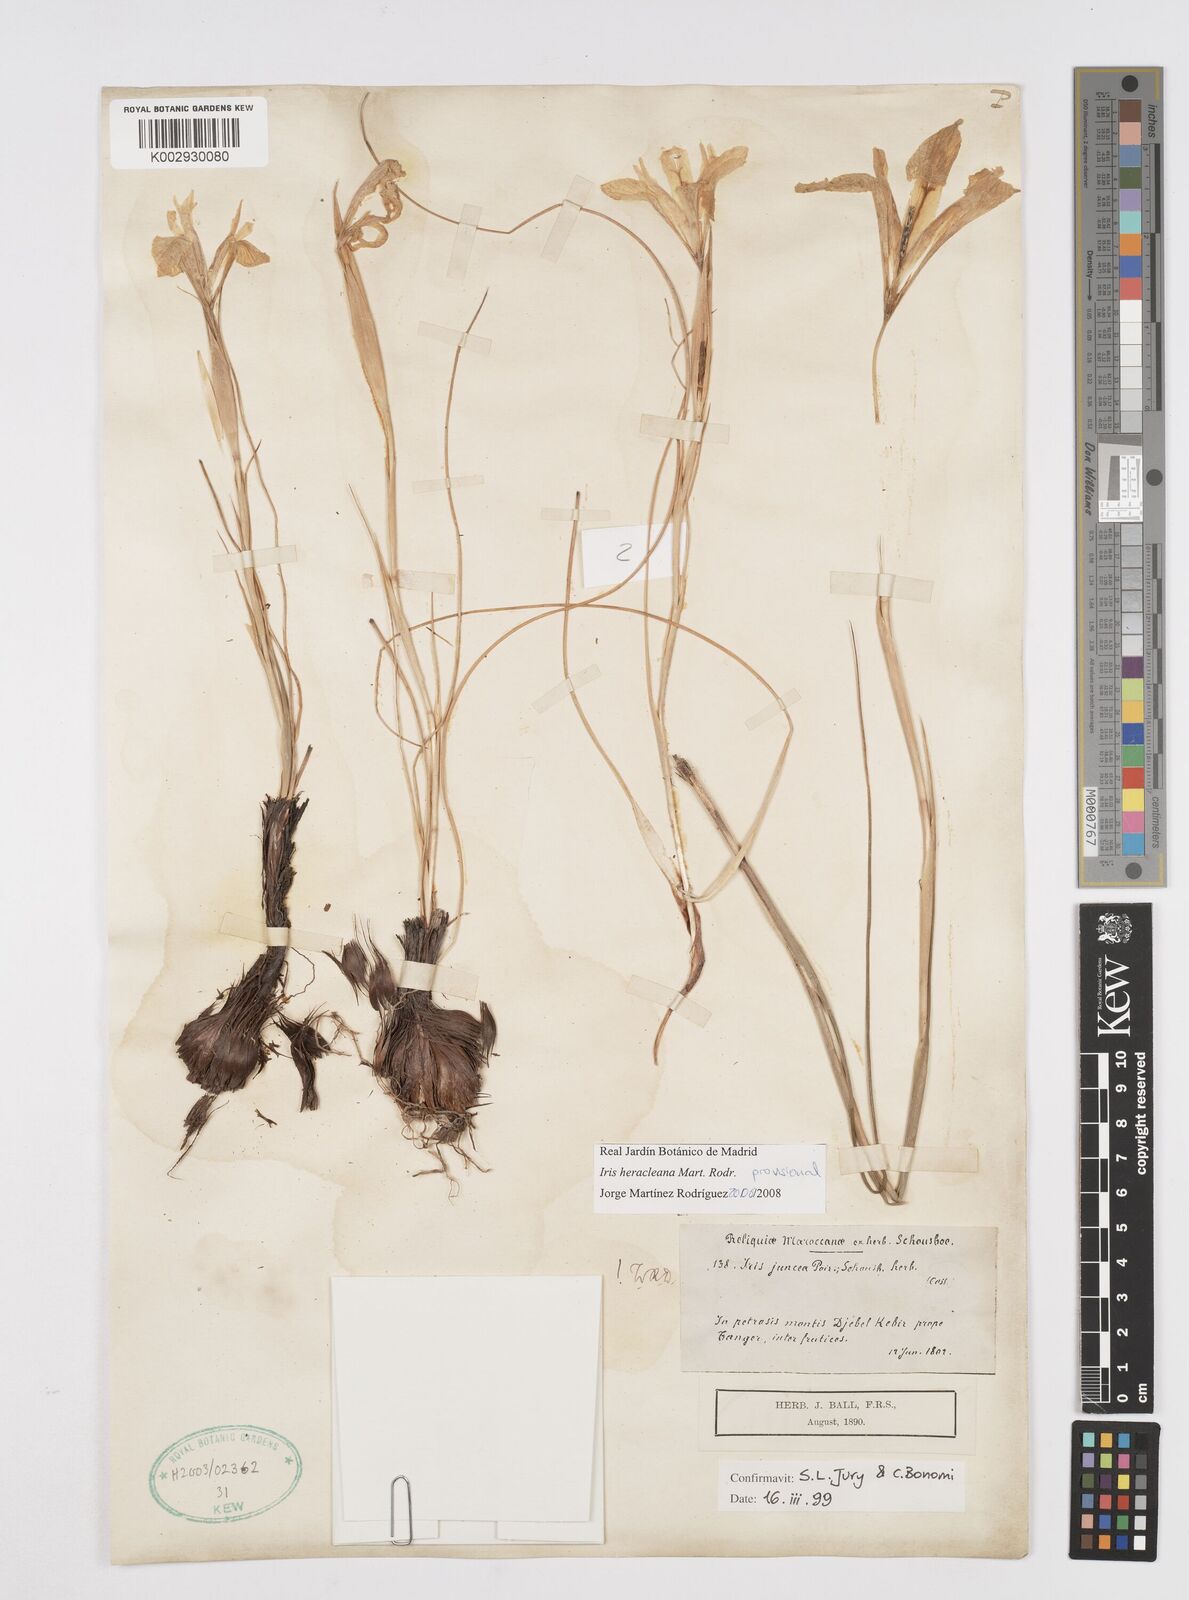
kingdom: Plantae
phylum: Tracheophyta
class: Liliopsida
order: Asparagales
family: Iridaceae
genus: Iris
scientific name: Iris heracleana
